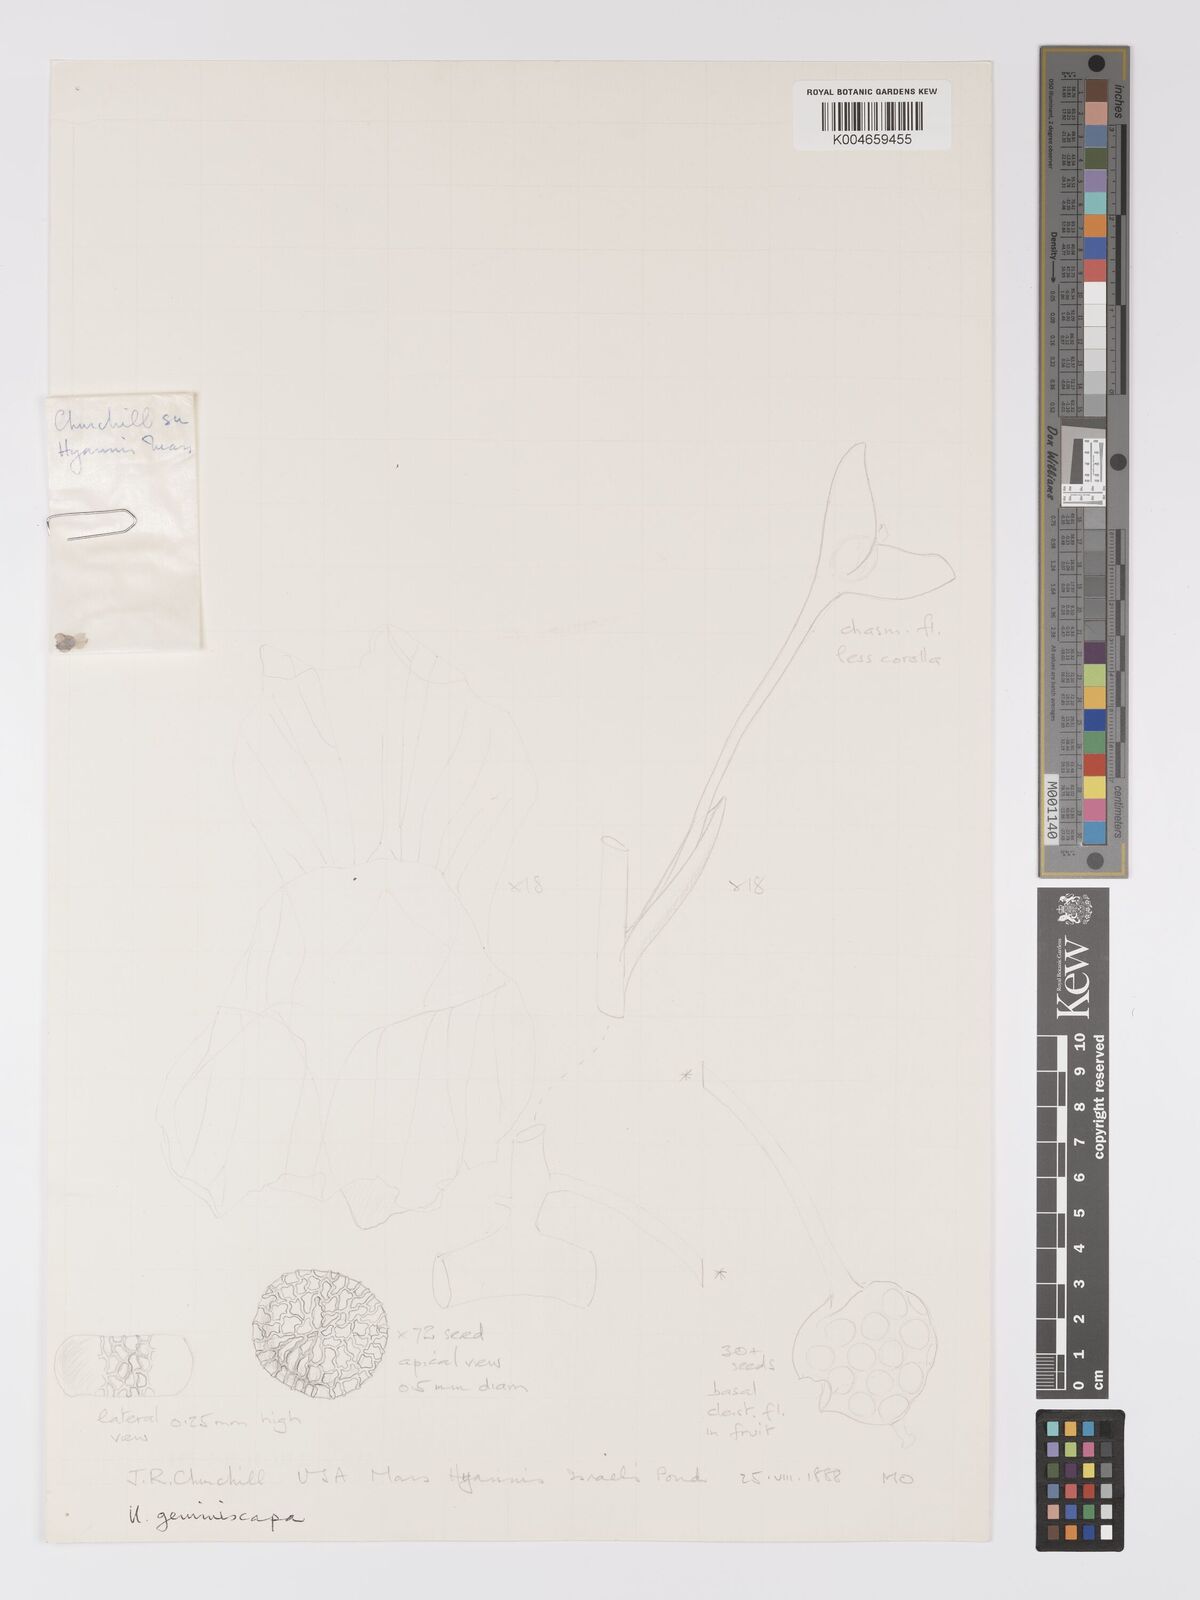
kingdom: Plantae
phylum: Tracheophyta
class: Magnoliopsida
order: Lamiales
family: Lentibulariaceae
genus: Utricularia
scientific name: Utricularia geminiscapa
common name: Hidden-fruit bladderwort
